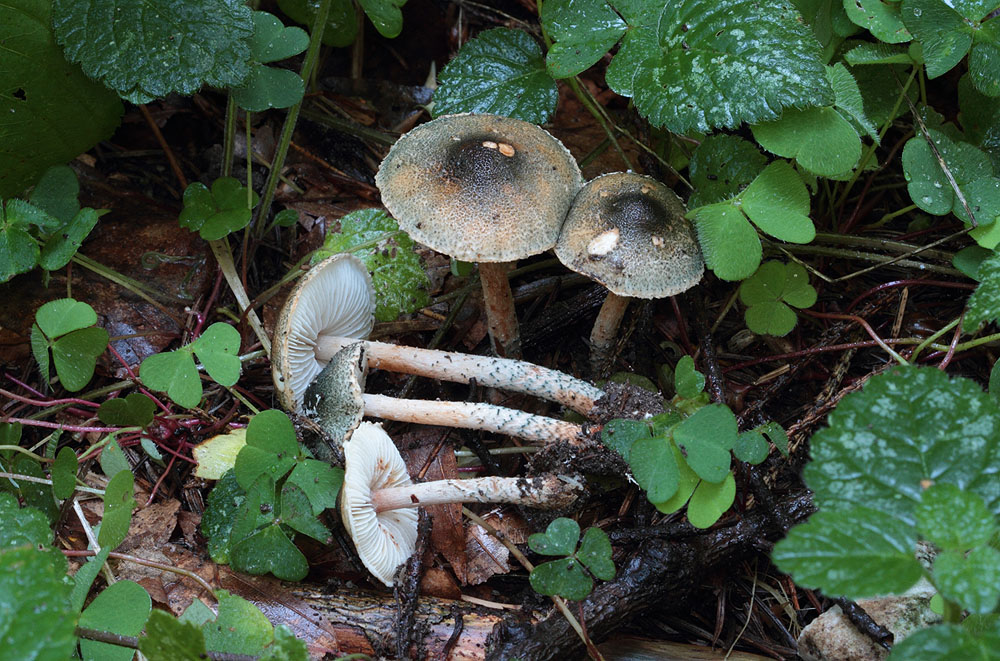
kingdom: Fungi
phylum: Basidiomycota
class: Agaricomycetes
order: Agaricales
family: Agaricaceae
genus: Lepiota
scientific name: Lepiota grangei
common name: grønskællet parasolhat
